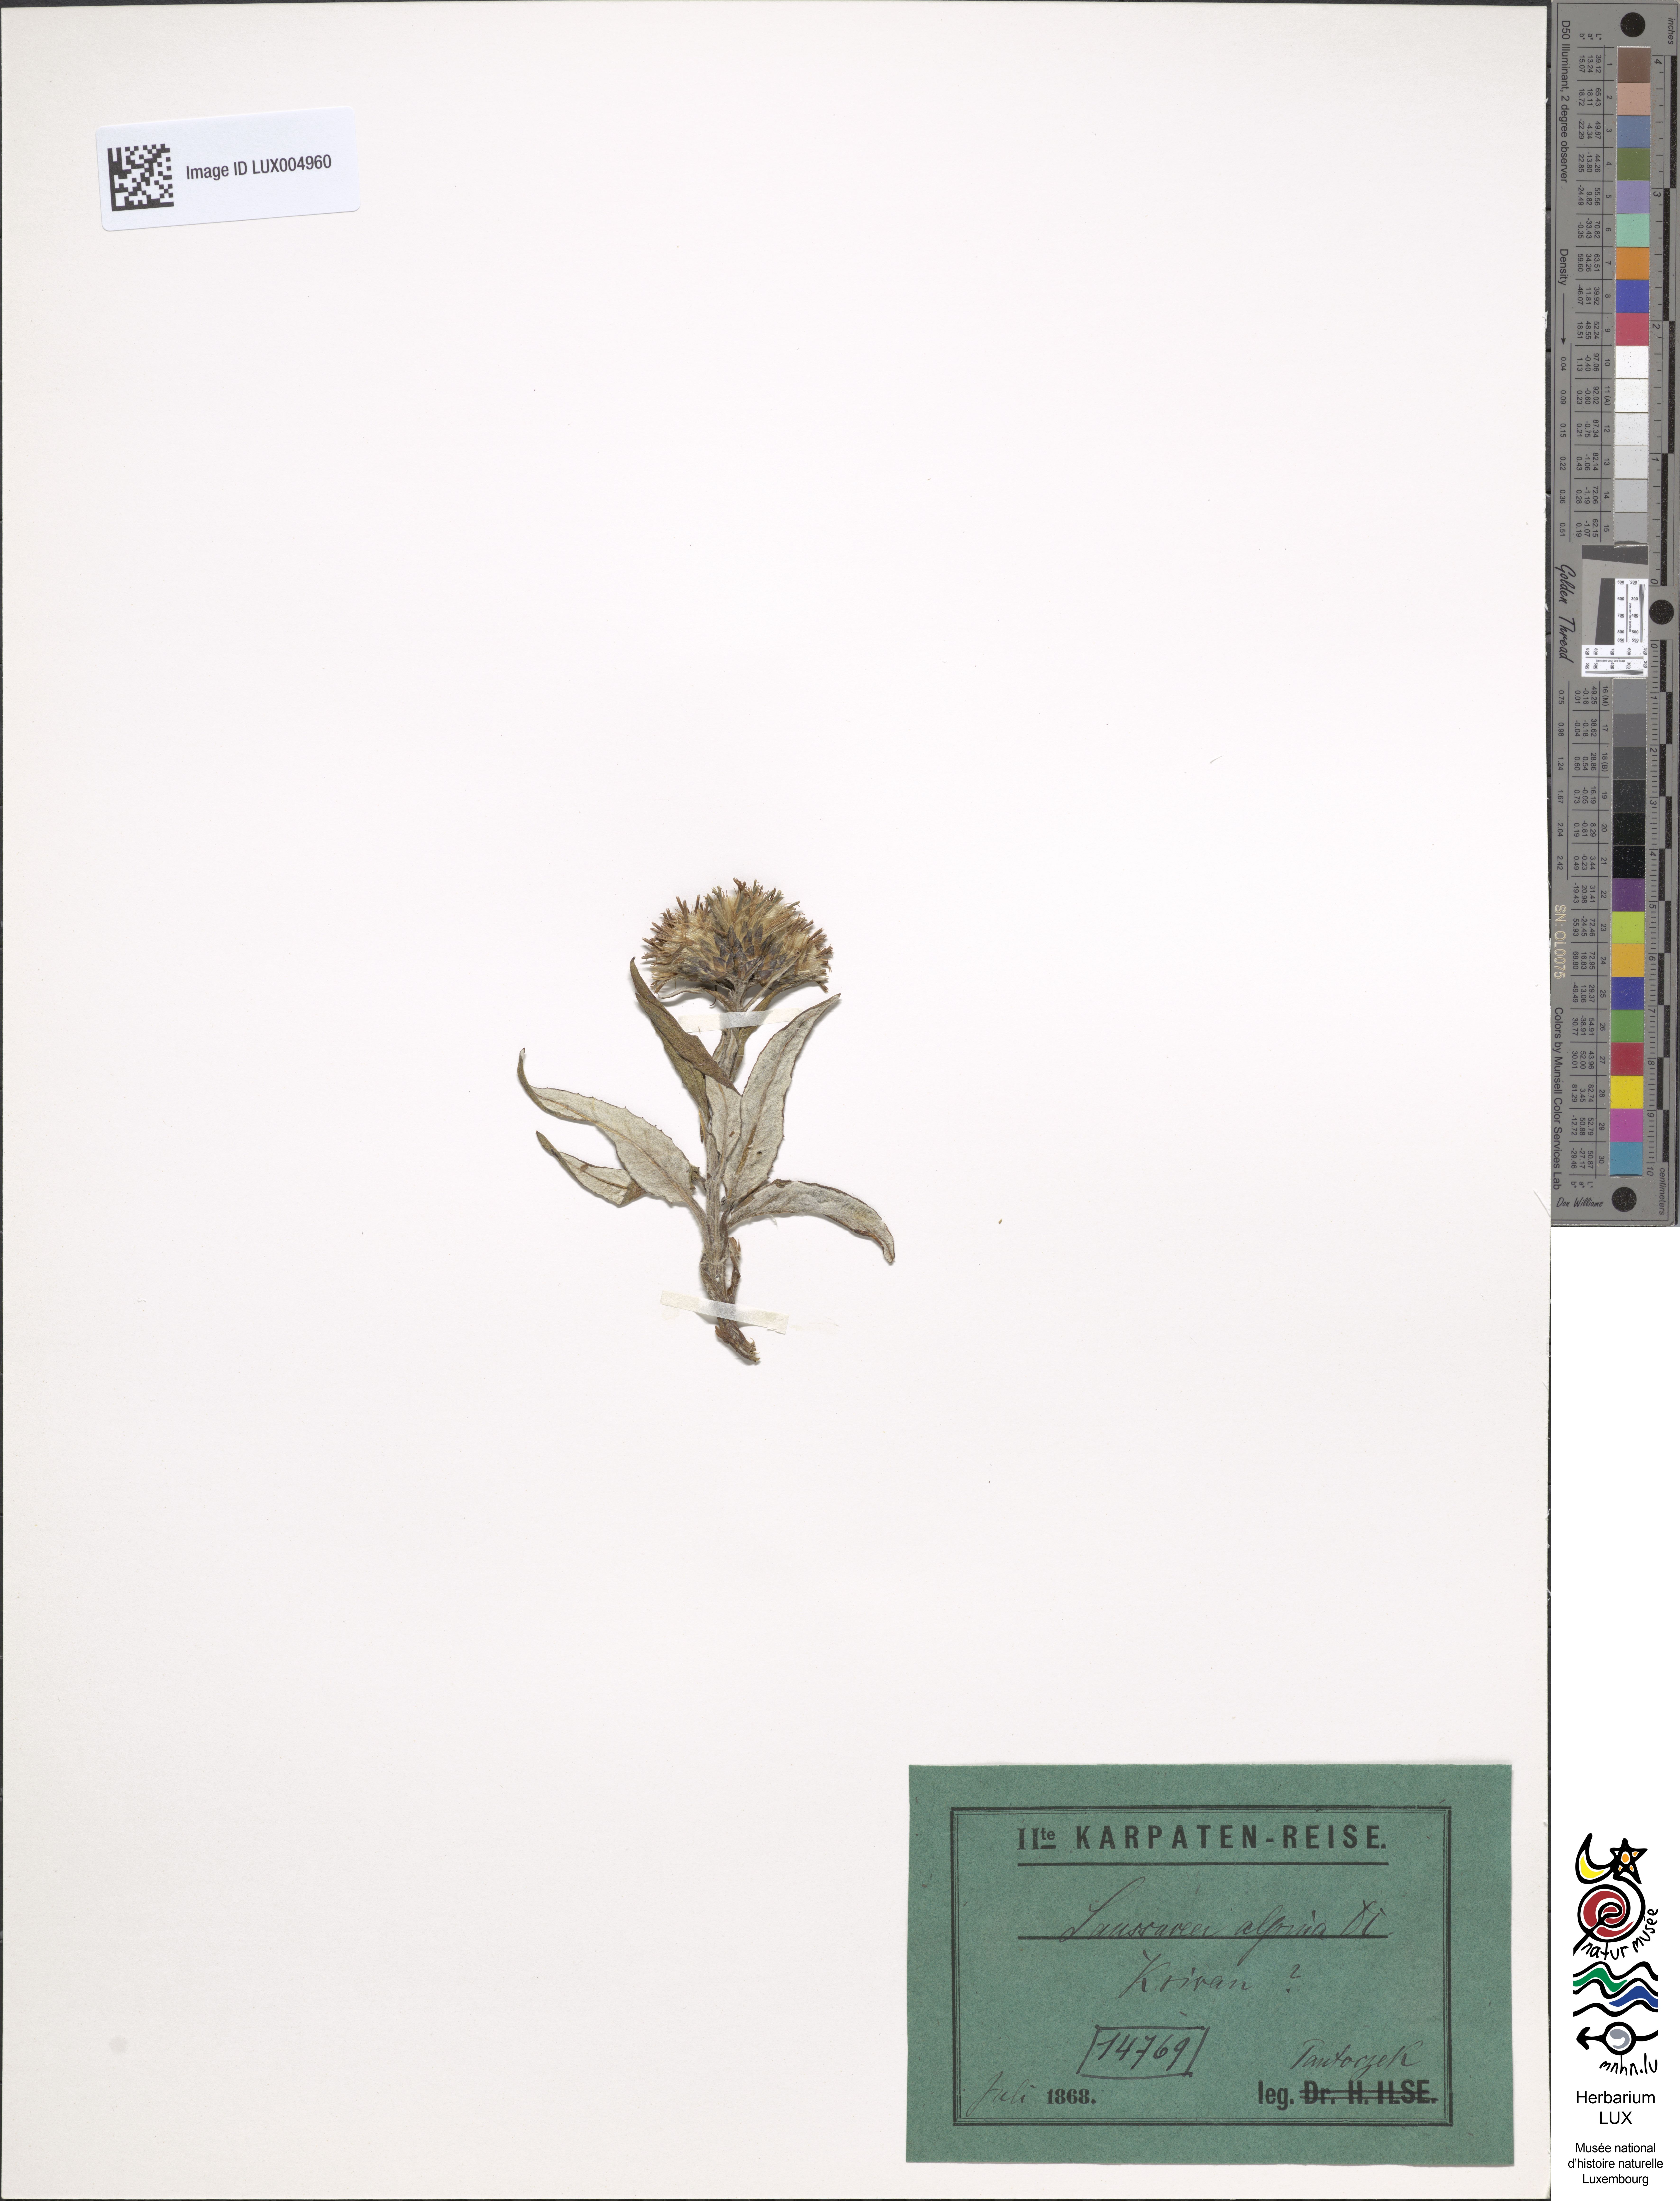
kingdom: Plantae
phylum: Tracheophyta
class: Magnoliopsida
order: Asterales
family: Asteraceae
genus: Saussurea
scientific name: Saussurea alpina
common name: Alpine saw-wort
